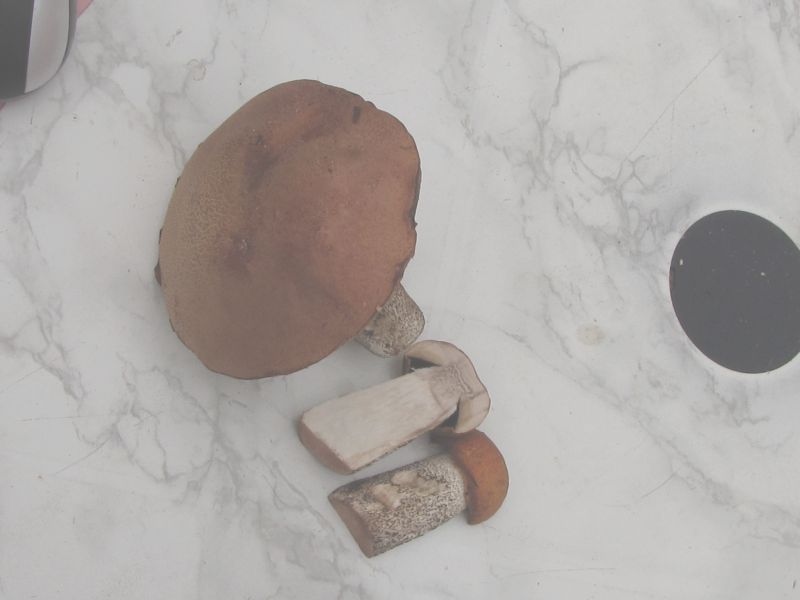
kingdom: Fungi
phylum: Basidiomycota
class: Agaricomycetes
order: Boletales
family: Boletaceae
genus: Leccinum
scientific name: Leccinum vulpinum
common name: fyrre-skælrørhat
